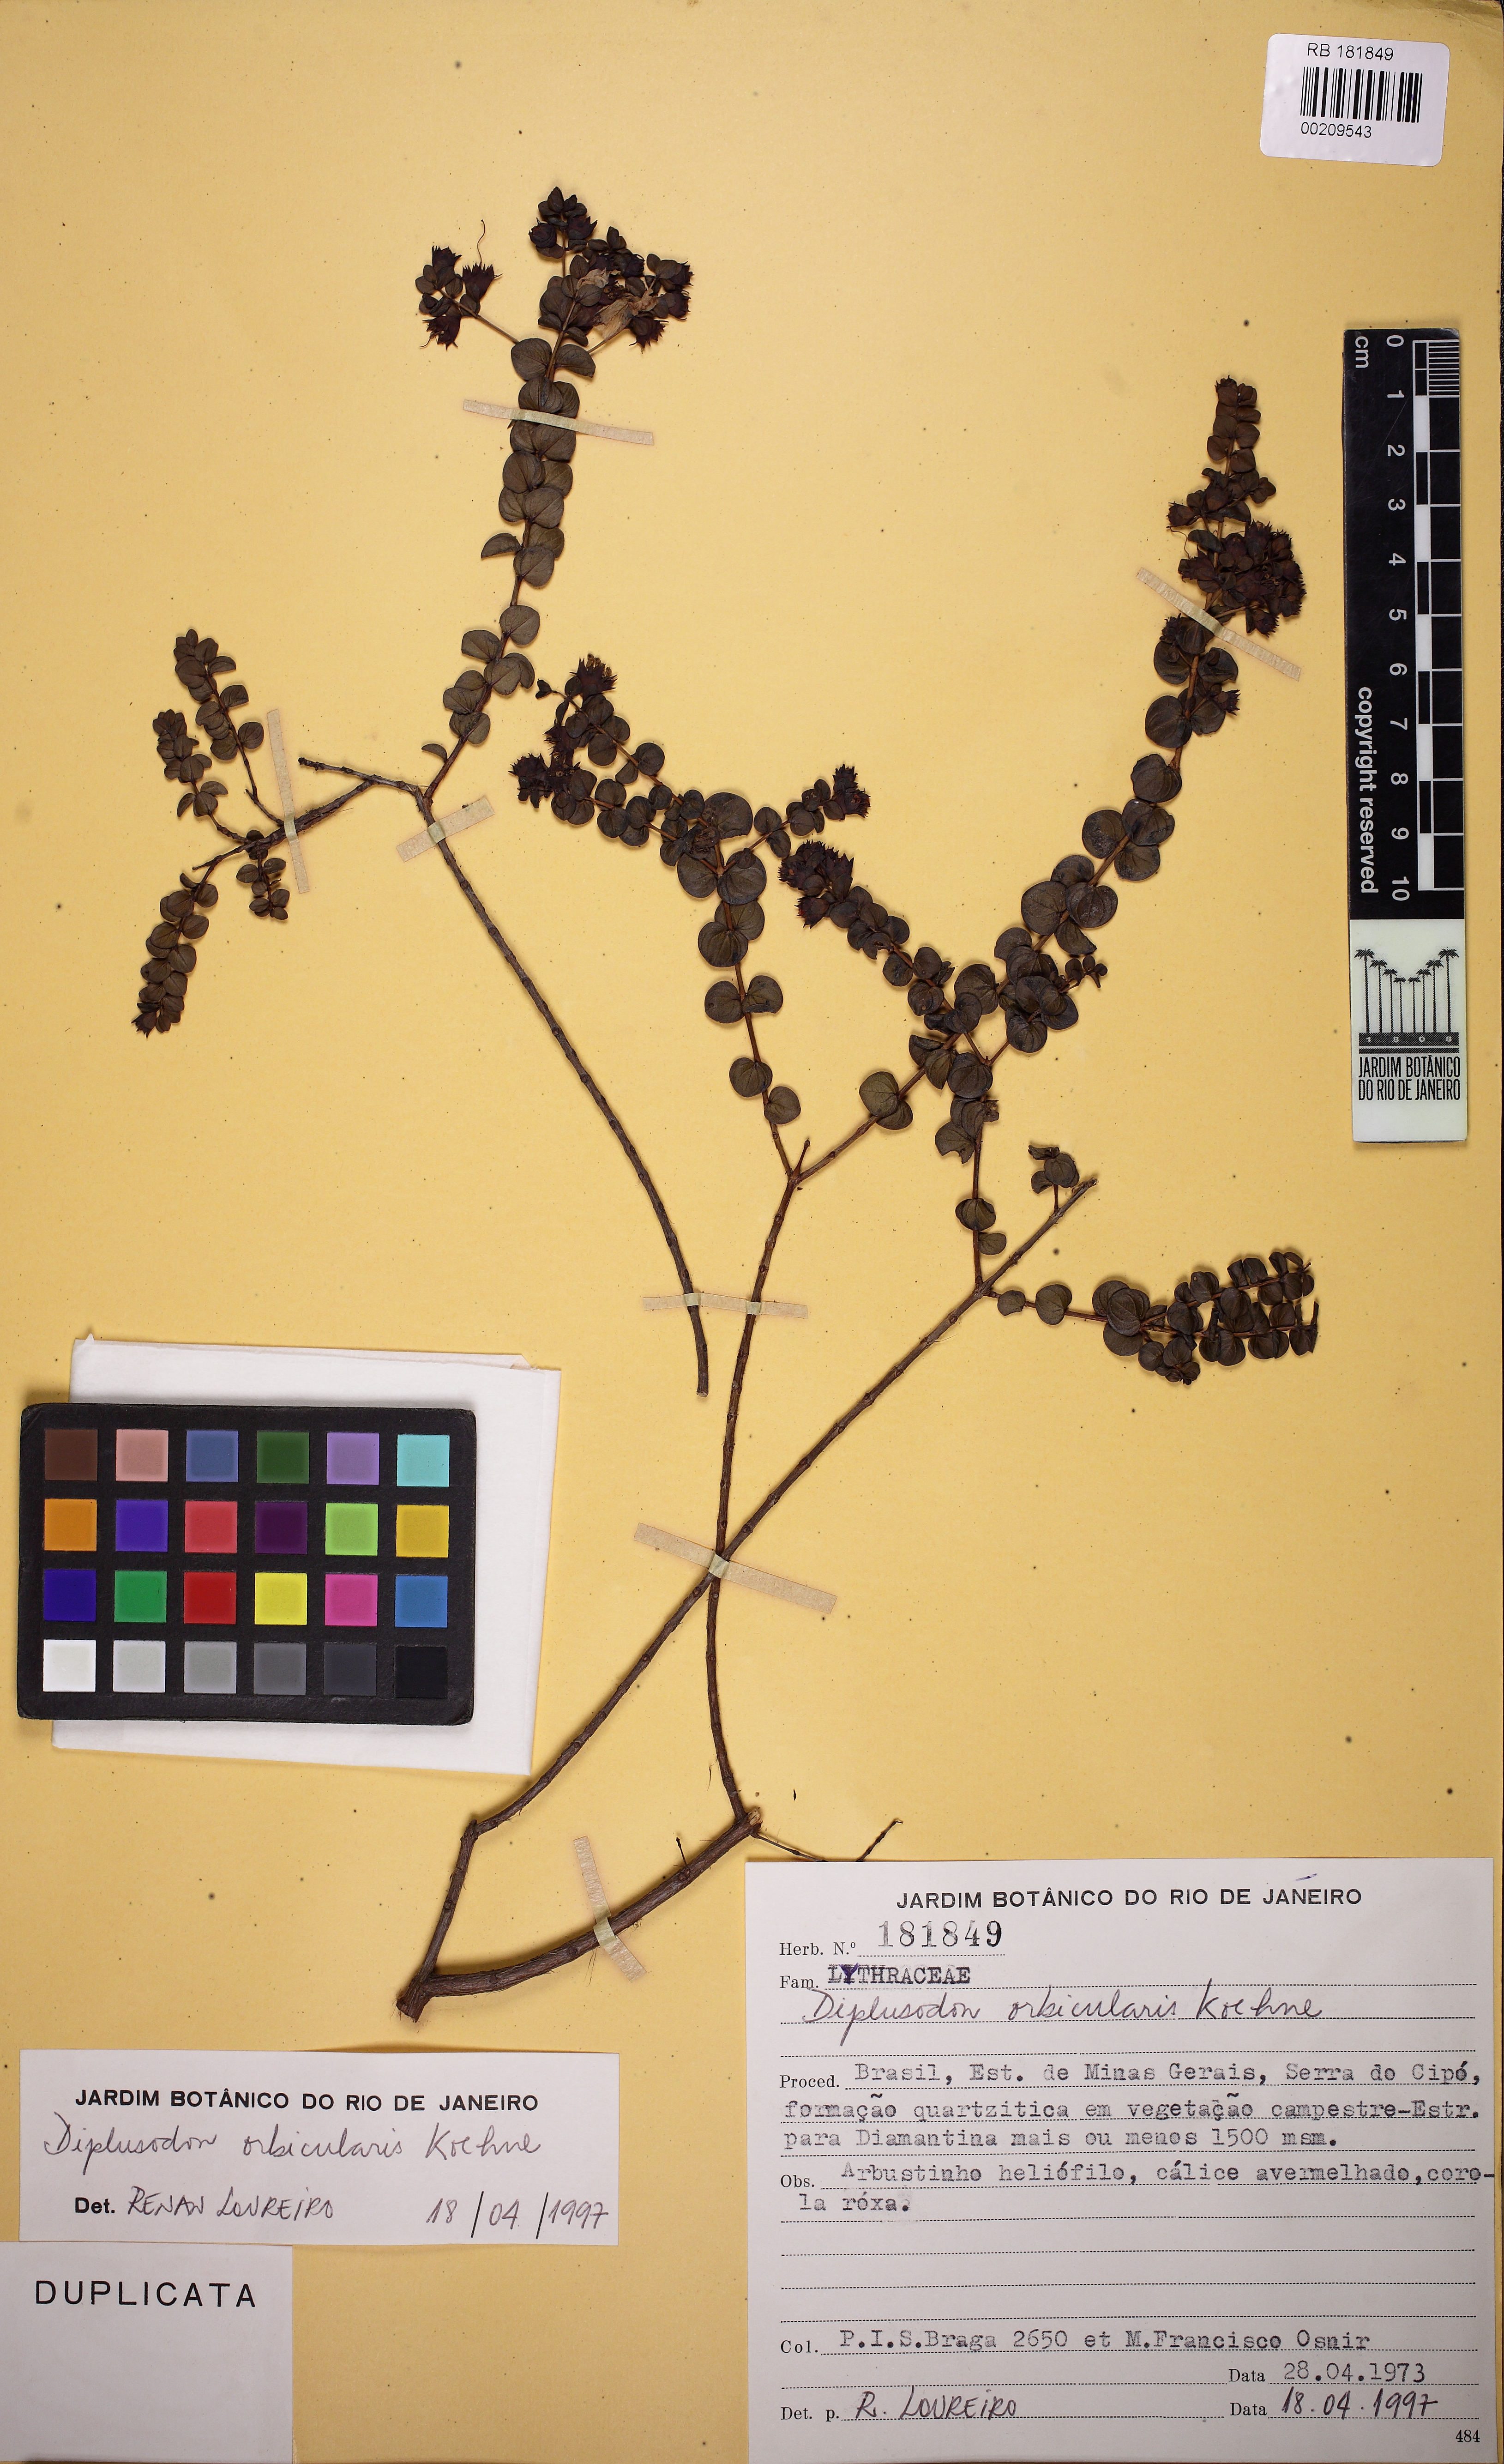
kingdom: Plantae
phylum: Tracheophyta
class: Magnoliopsida
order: Myrtales
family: Lythraceae
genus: Diplusodon
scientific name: Diplusodon orbicularis
